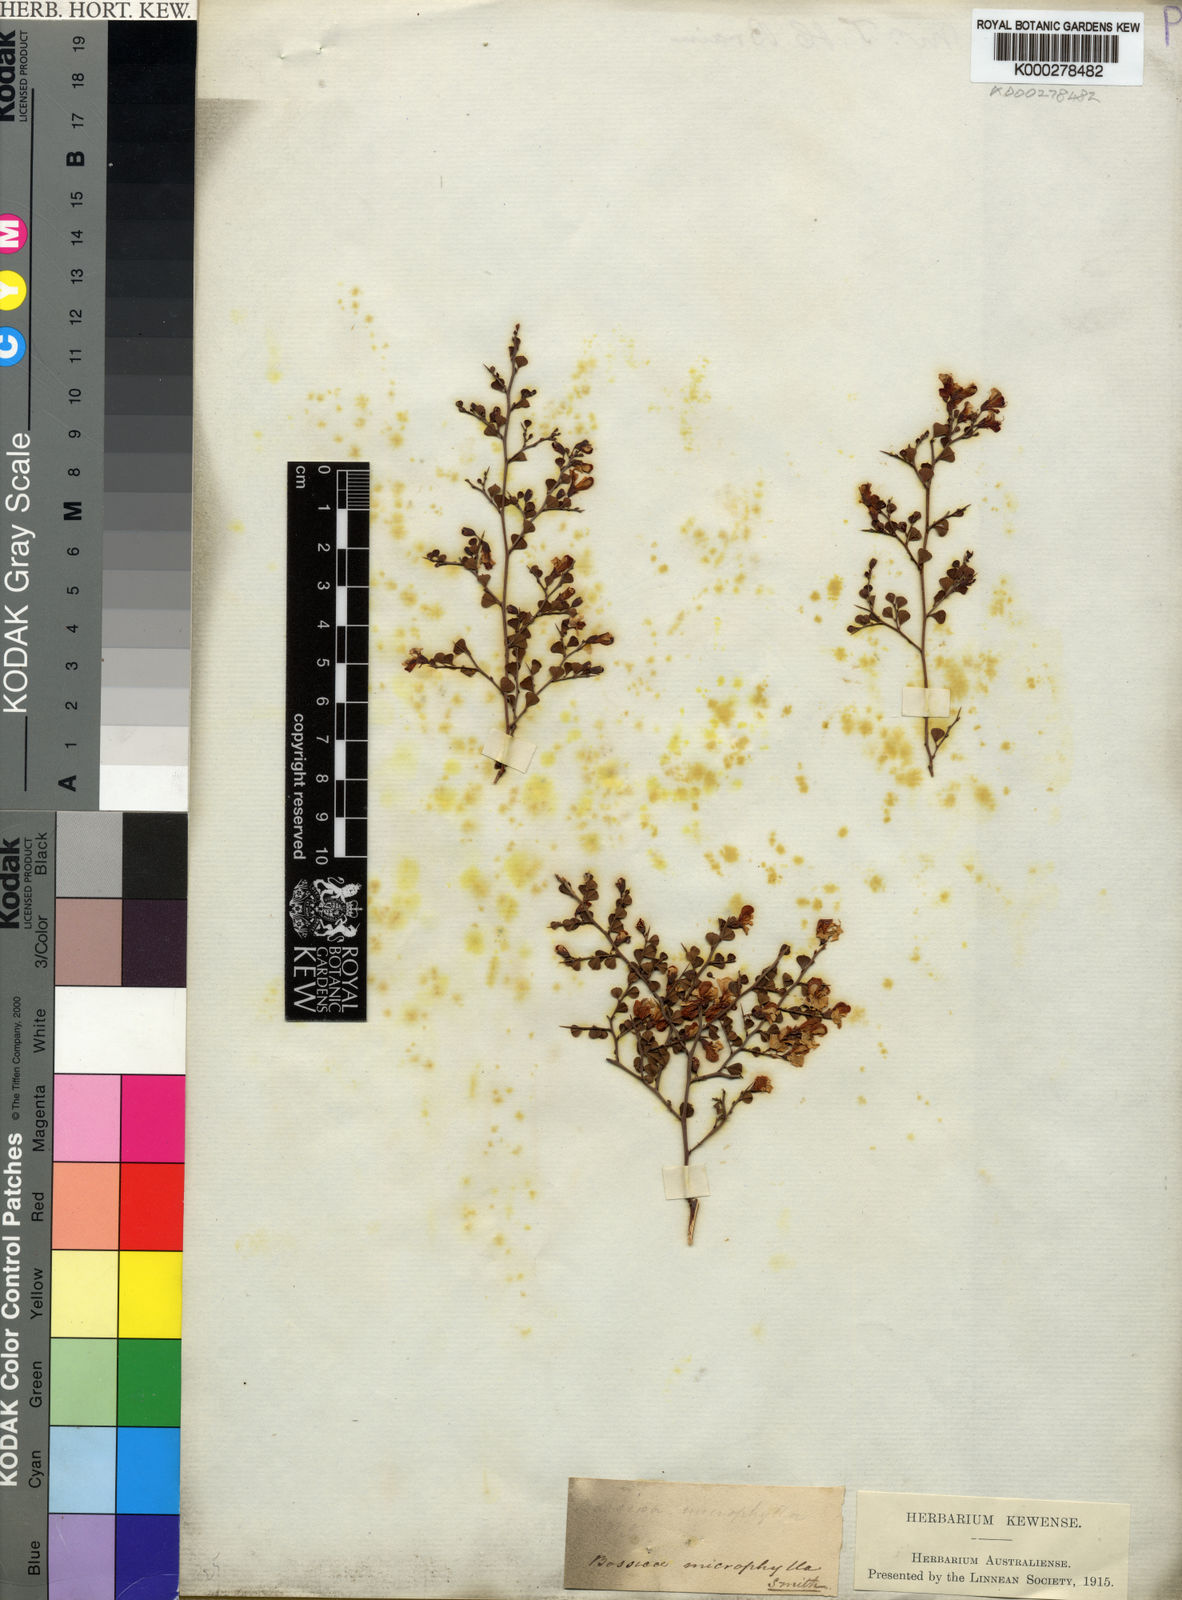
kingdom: Plantae
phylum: Tracheophyta
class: Magnoliopsida
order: Fabales
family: Fabaceae
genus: Bossiaea
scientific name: Bossiaea obcordata
